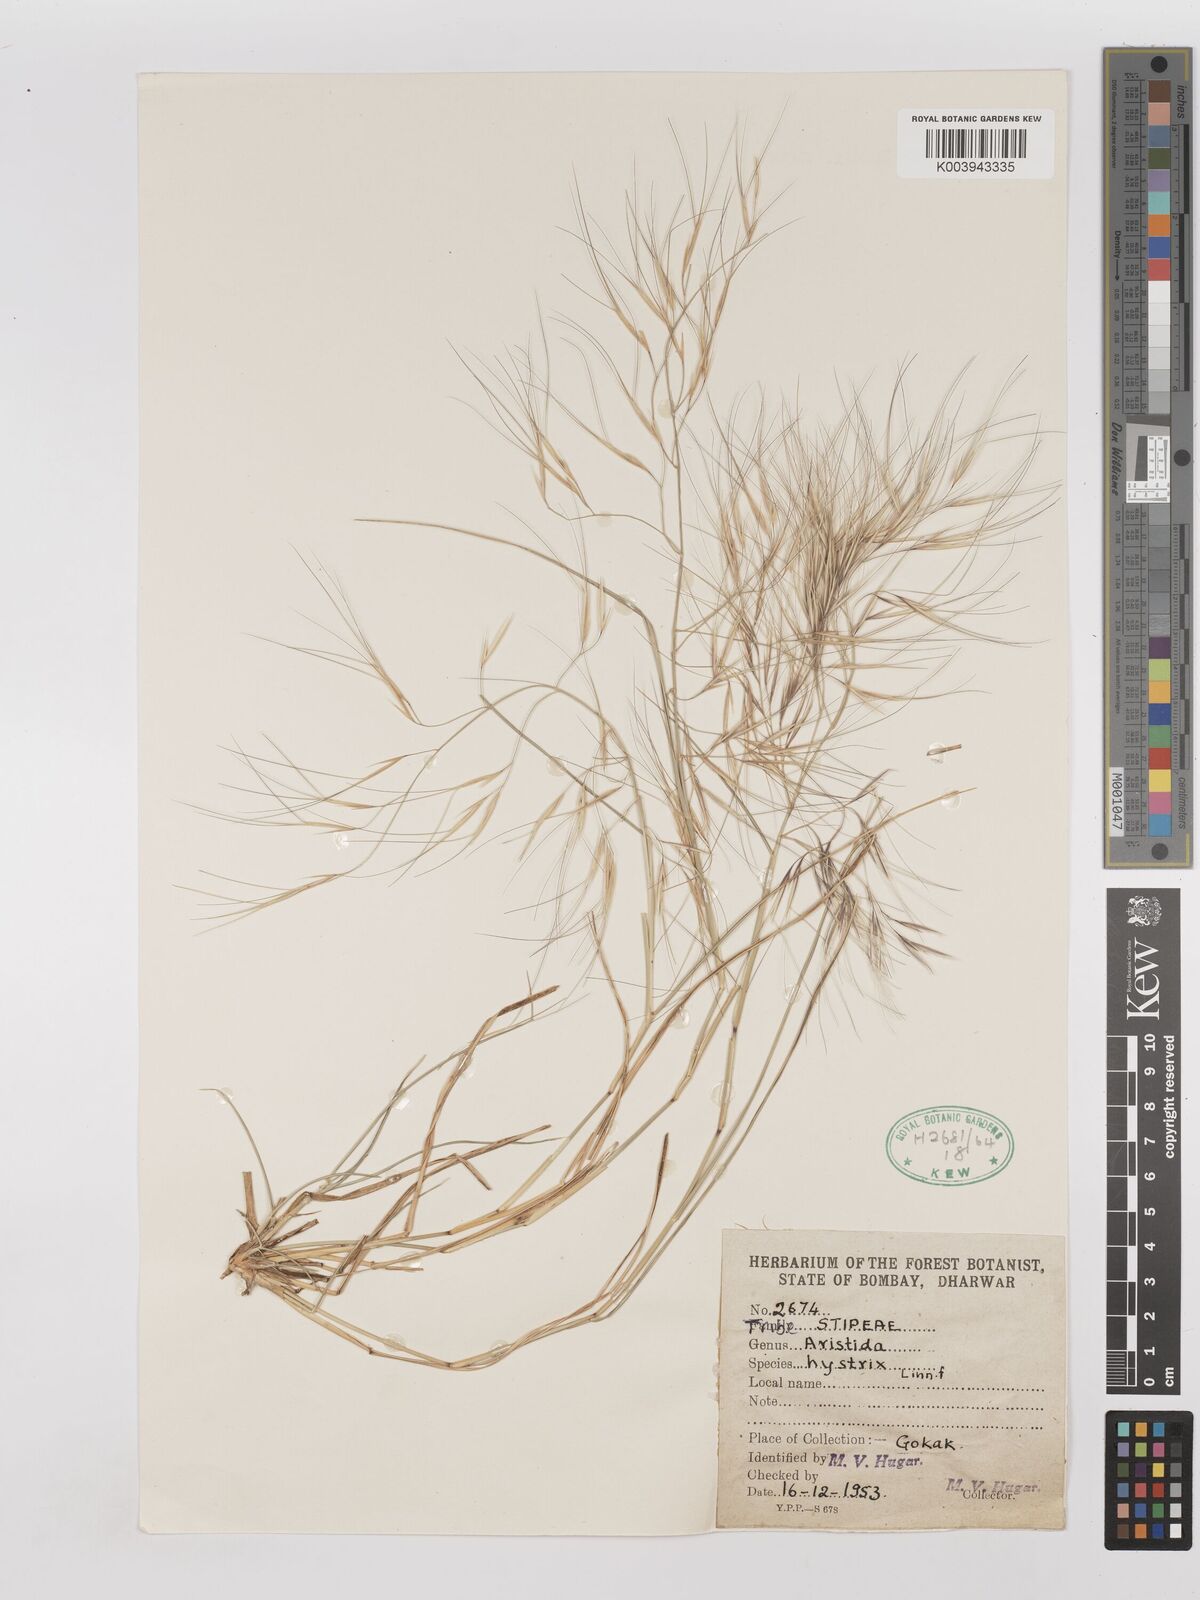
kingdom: Plantae
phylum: Tracheophyta
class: Liliopsida
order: Poales
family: Poaceae
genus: Aristida
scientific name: Aristida hystrix
